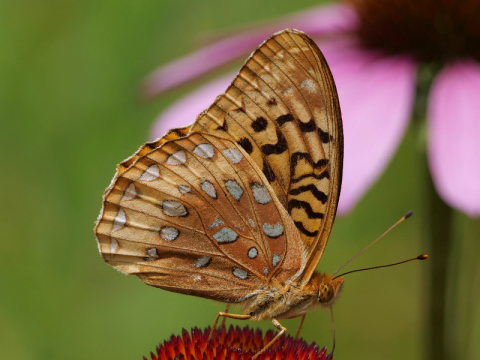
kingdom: Animalia
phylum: Arthropoda
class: Insecta
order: Lepidoptera
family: Nymphalidae
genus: Speyeria
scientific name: Speyeria cybele
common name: Great Spangled Fritillary
